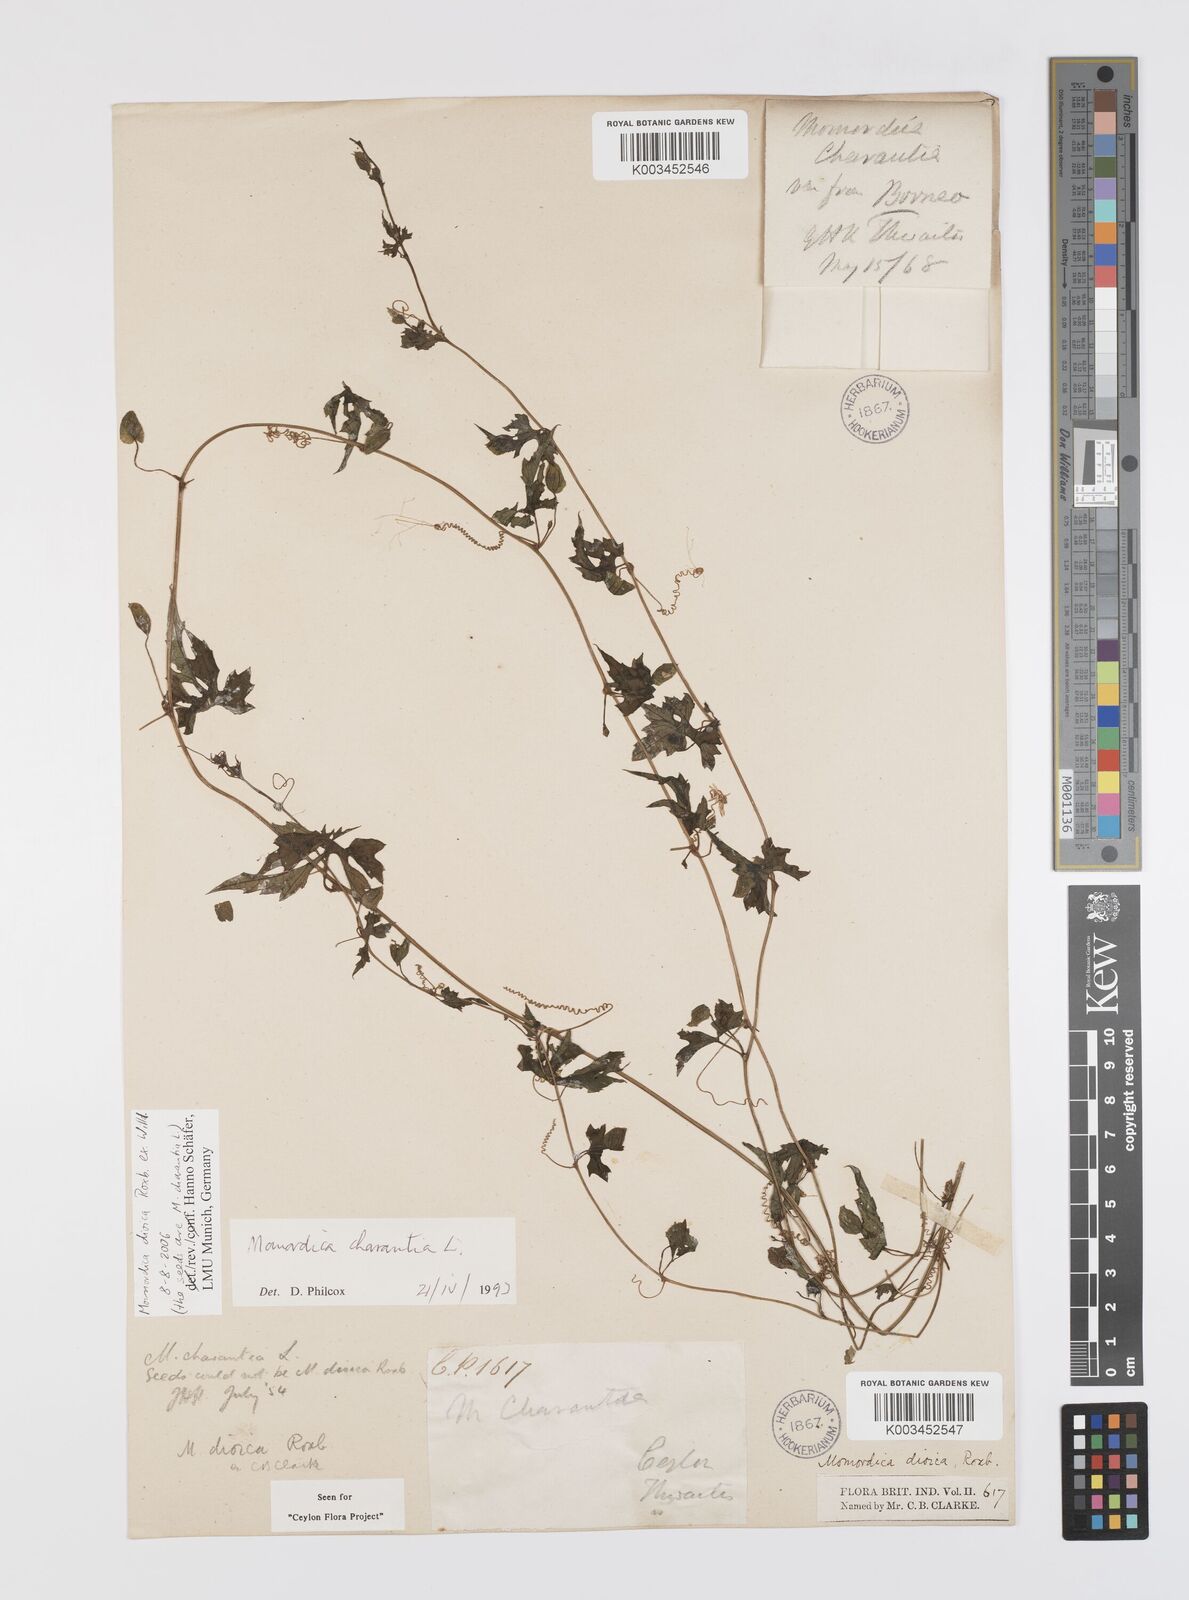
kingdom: Plantae
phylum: Tracheophyta
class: Magnoliopsida
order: Cucurbitales
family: Cucurbitaceae
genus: Momordica
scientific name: Momordica dioica
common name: Spine gourd
